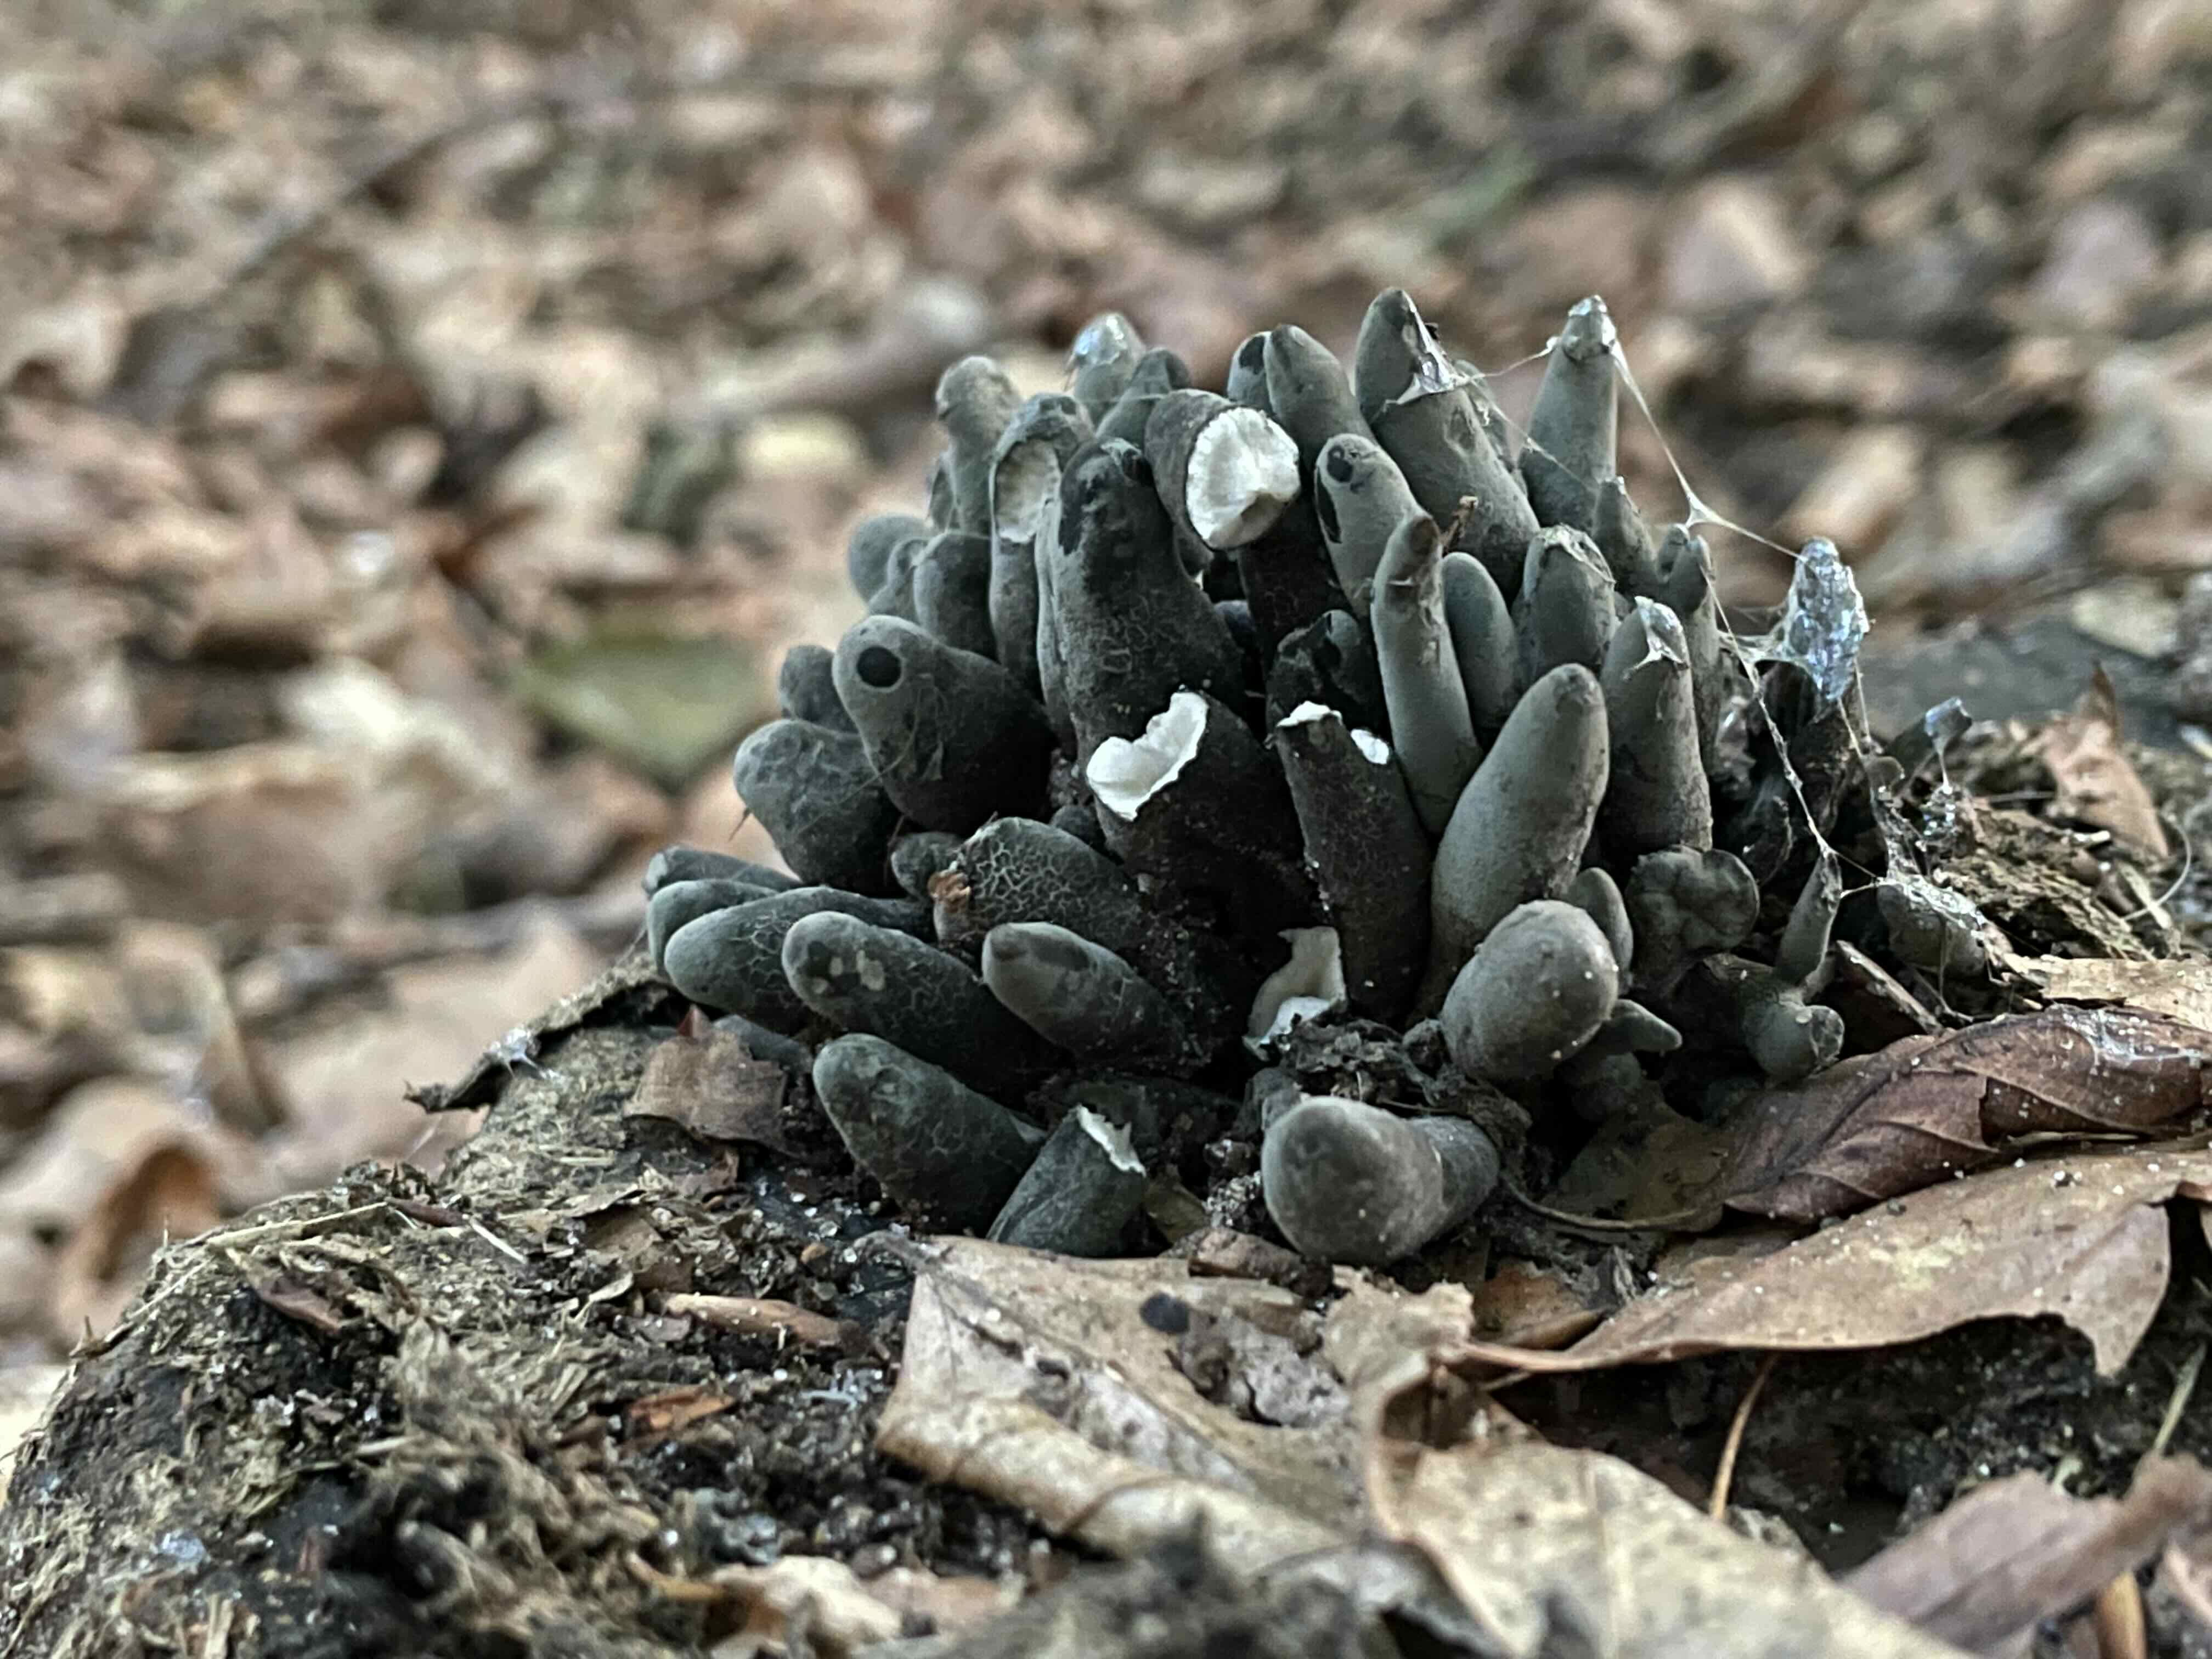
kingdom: Fungi
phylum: Ascomycota
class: Sordariomycetes
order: Xylariales
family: Xylariaceae
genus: Xylaria
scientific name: Xylaria polymorpha
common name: kølle-stødsvamp
